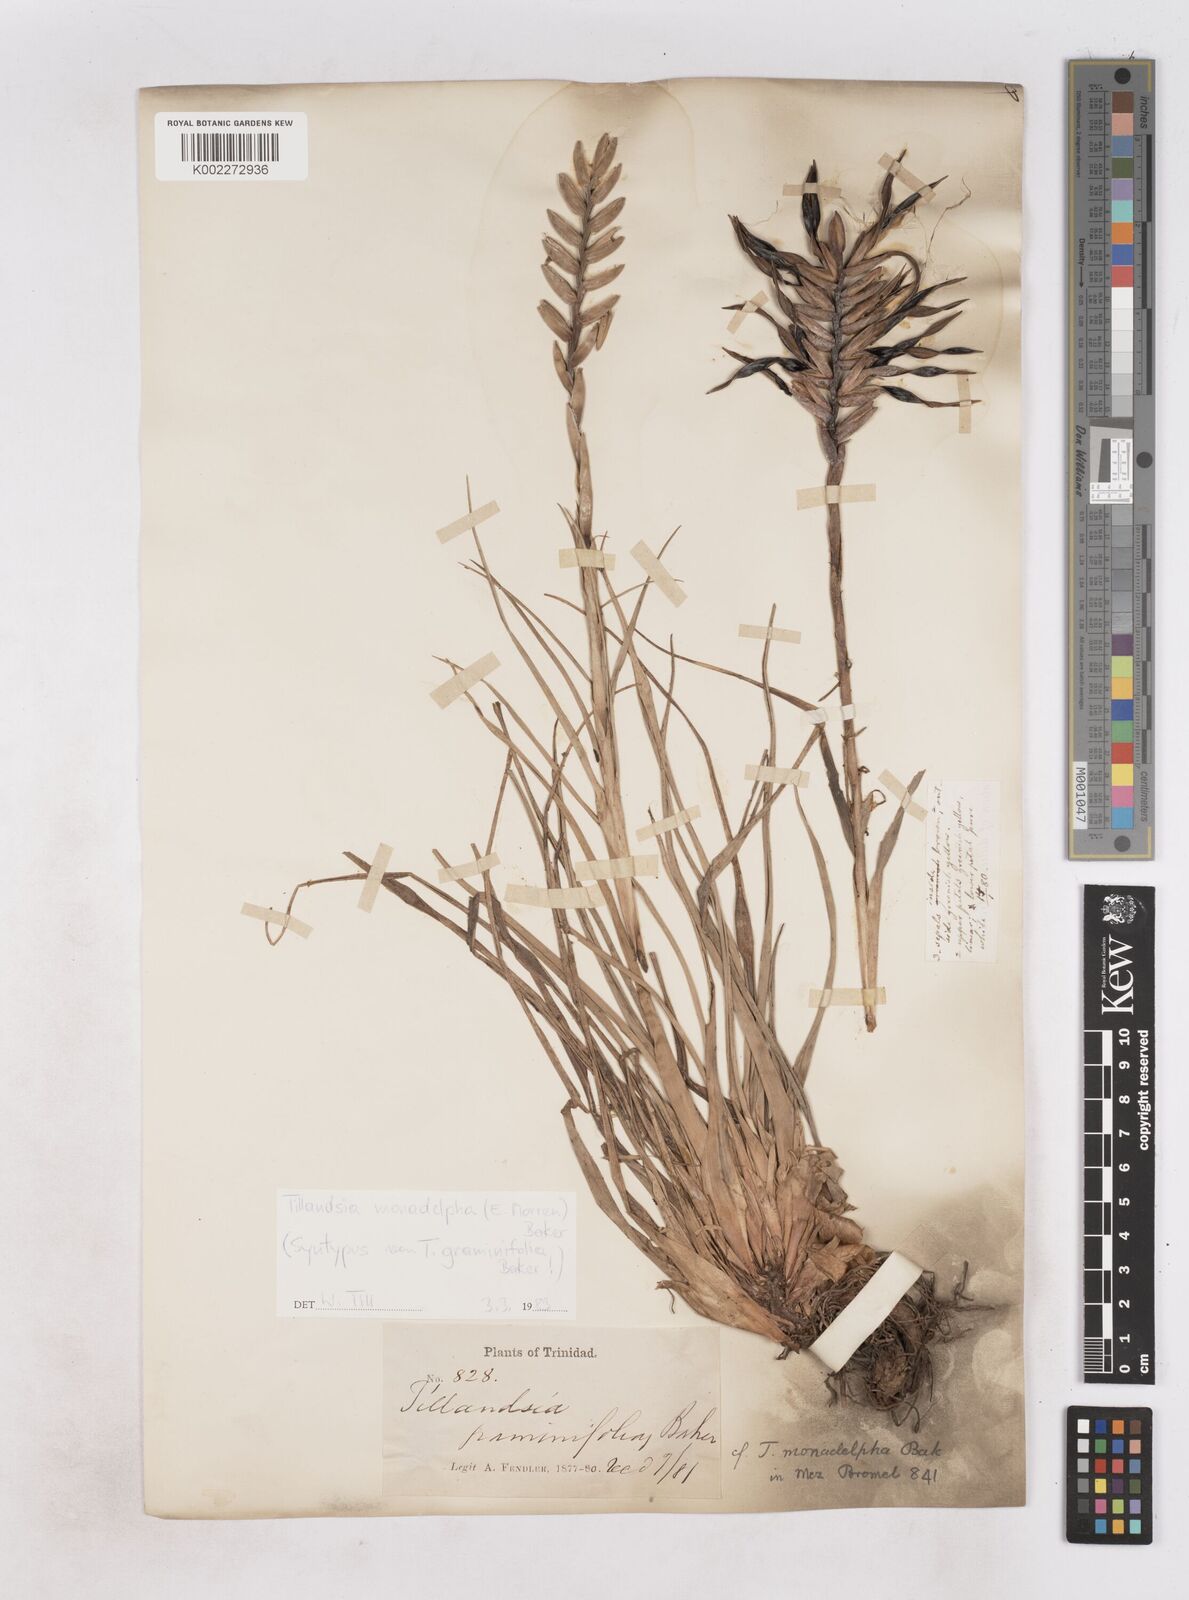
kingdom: Plantae
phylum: Tracheophyta
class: Liliopsida
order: Poales
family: Bromeliaceae
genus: Lemeltonia
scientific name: Lemeltonia monadelpha
